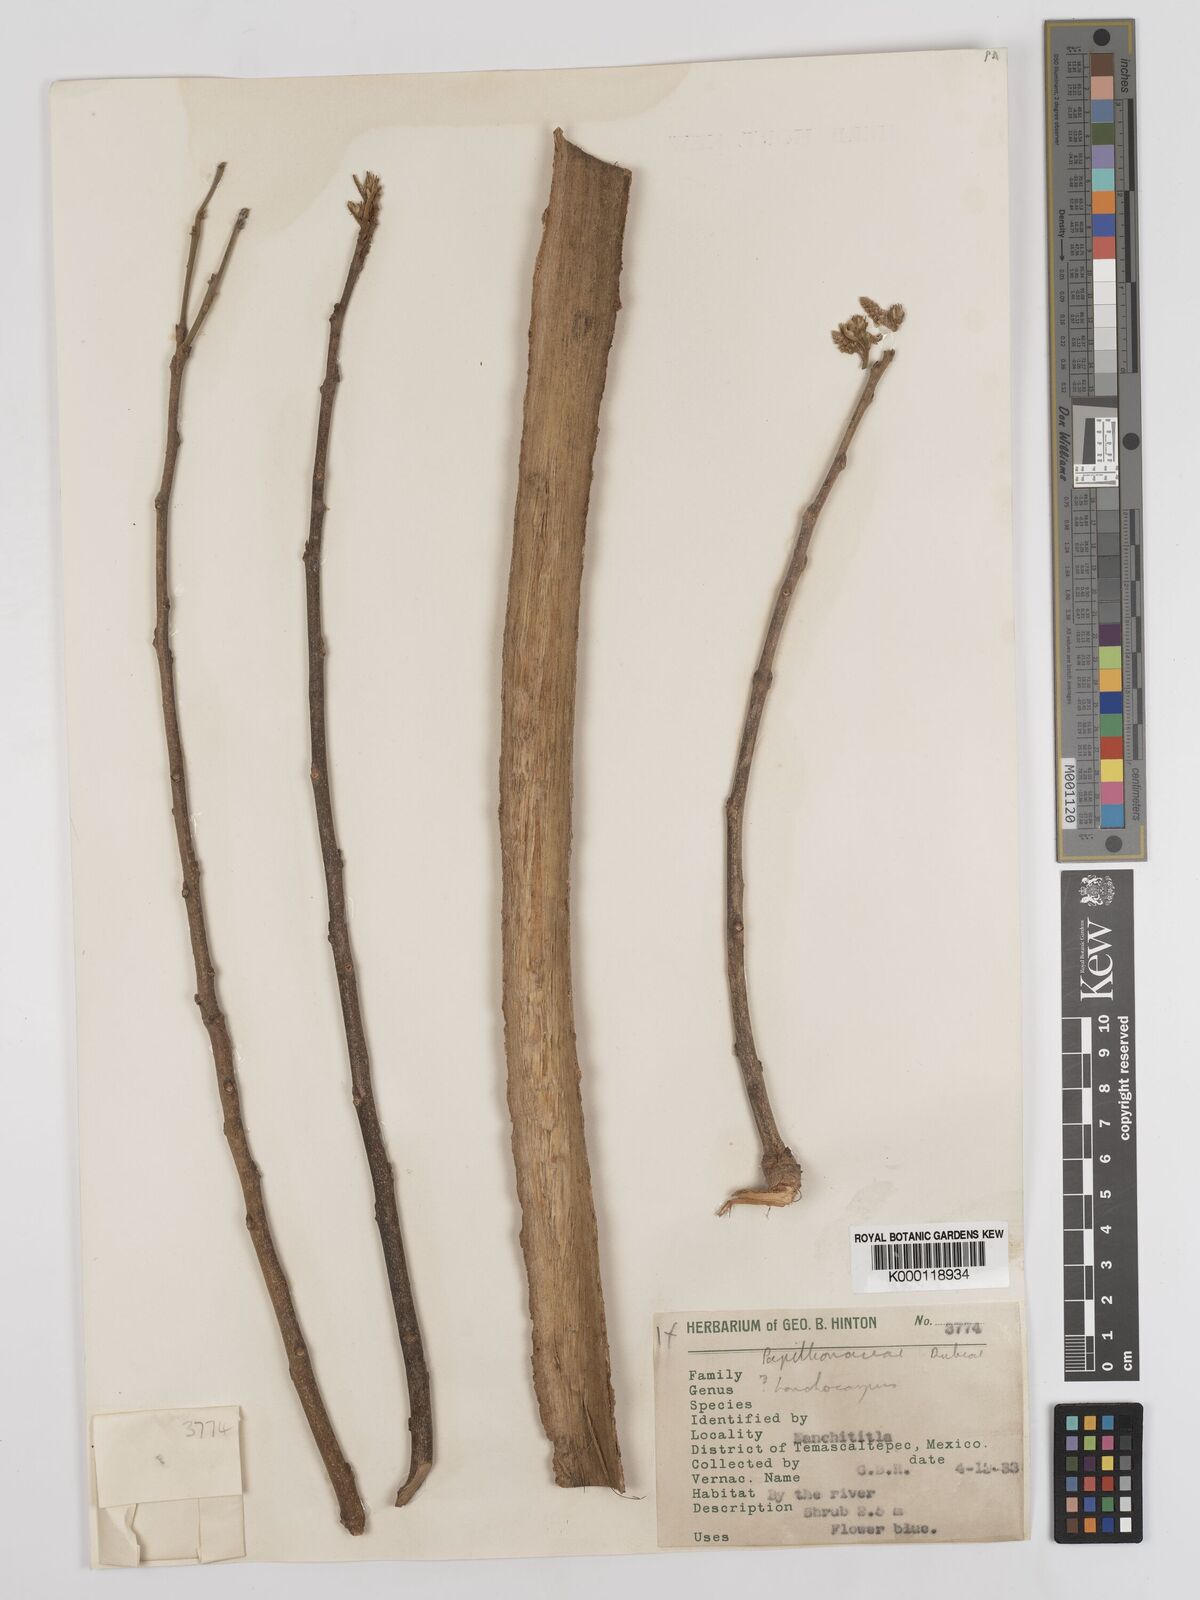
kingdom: Plantae
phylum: Tracheophyta
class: Magnoliopsida
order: Fabales
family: Fabaceae
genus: Lonchocarpus
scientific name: Lonchocarpus
